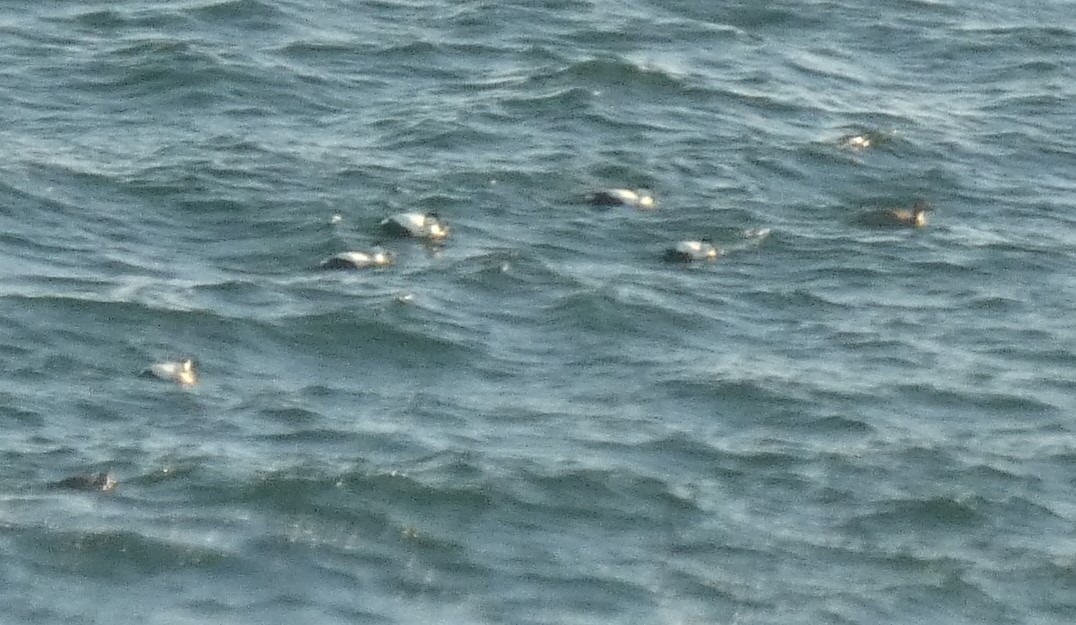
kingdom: Animalia
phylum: Chordata
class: Aves
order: Anseriformes
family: Anatidae
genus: Somateria
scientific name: Somateria mollissima
